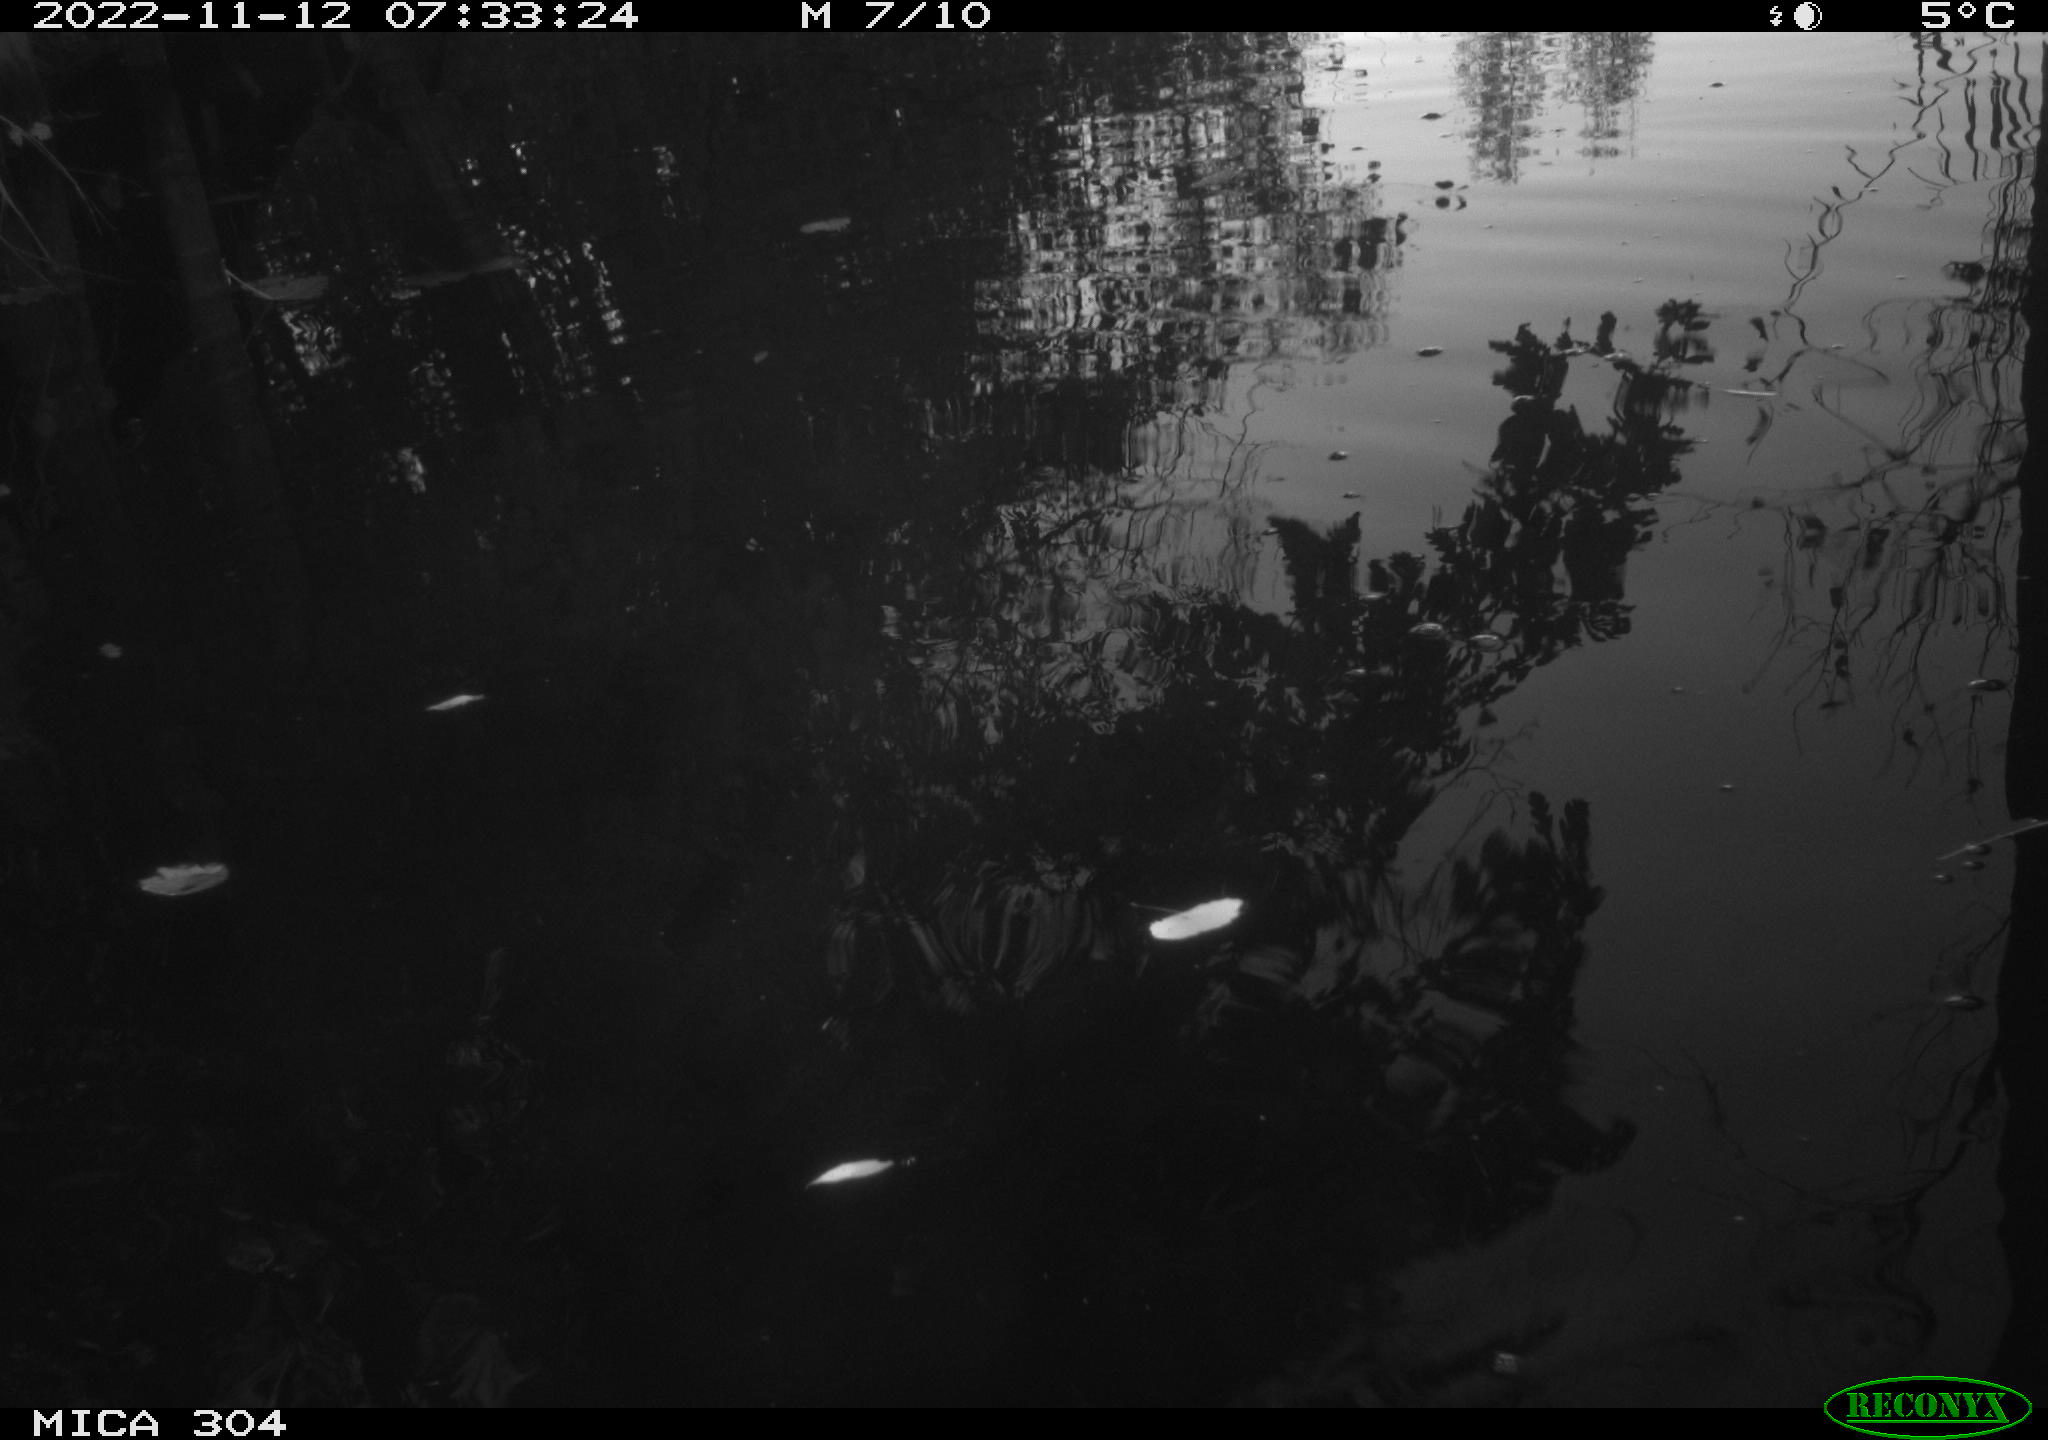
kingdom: Animalia
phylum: Chordata
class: Aves
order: Gruiformes
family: Rallidae
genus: Gallinula
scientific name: Gallinula chloropus
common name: Common moorhen
